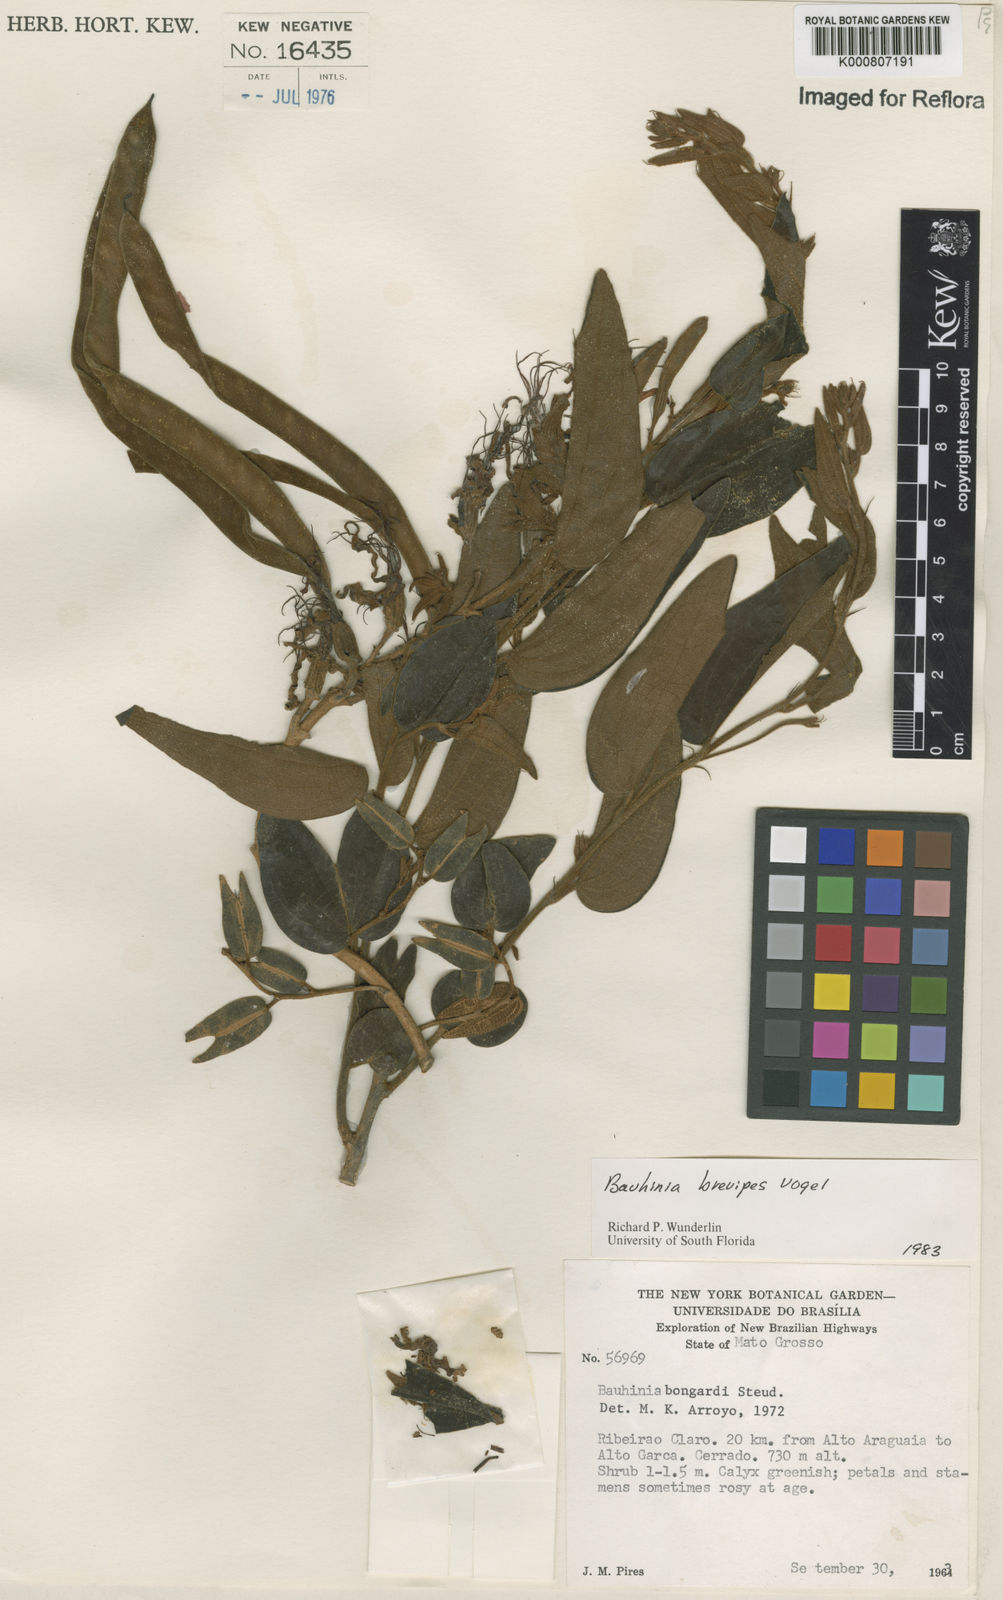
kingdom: Plantae
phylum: Tracheophyta
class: Magnoliopsida
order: Fabales
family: Fabaceae
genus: Bauhinia
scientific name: Bauhinia brevipes
